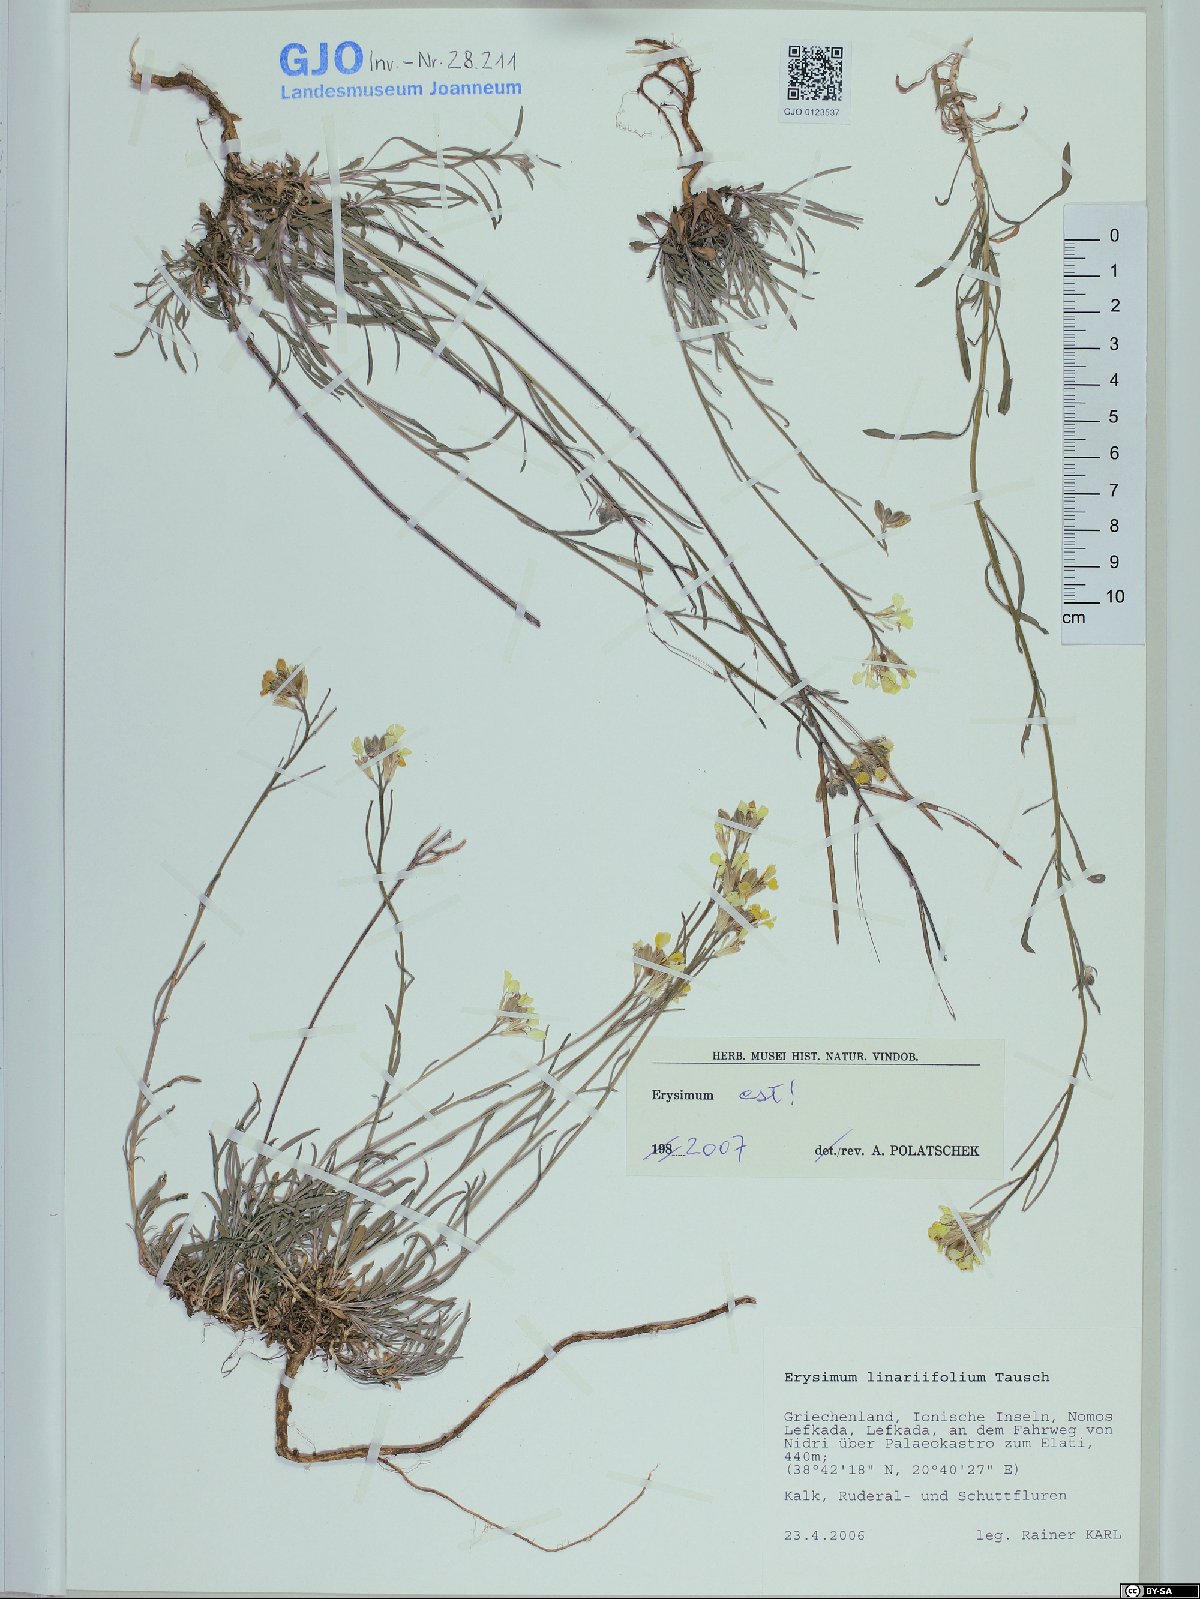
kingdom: Plantae
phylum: Tracheophyta
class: Magnoliopsida
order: Brassicales
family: Brassicaceae
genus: Erysimum
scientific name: Erysimum linariifolium
